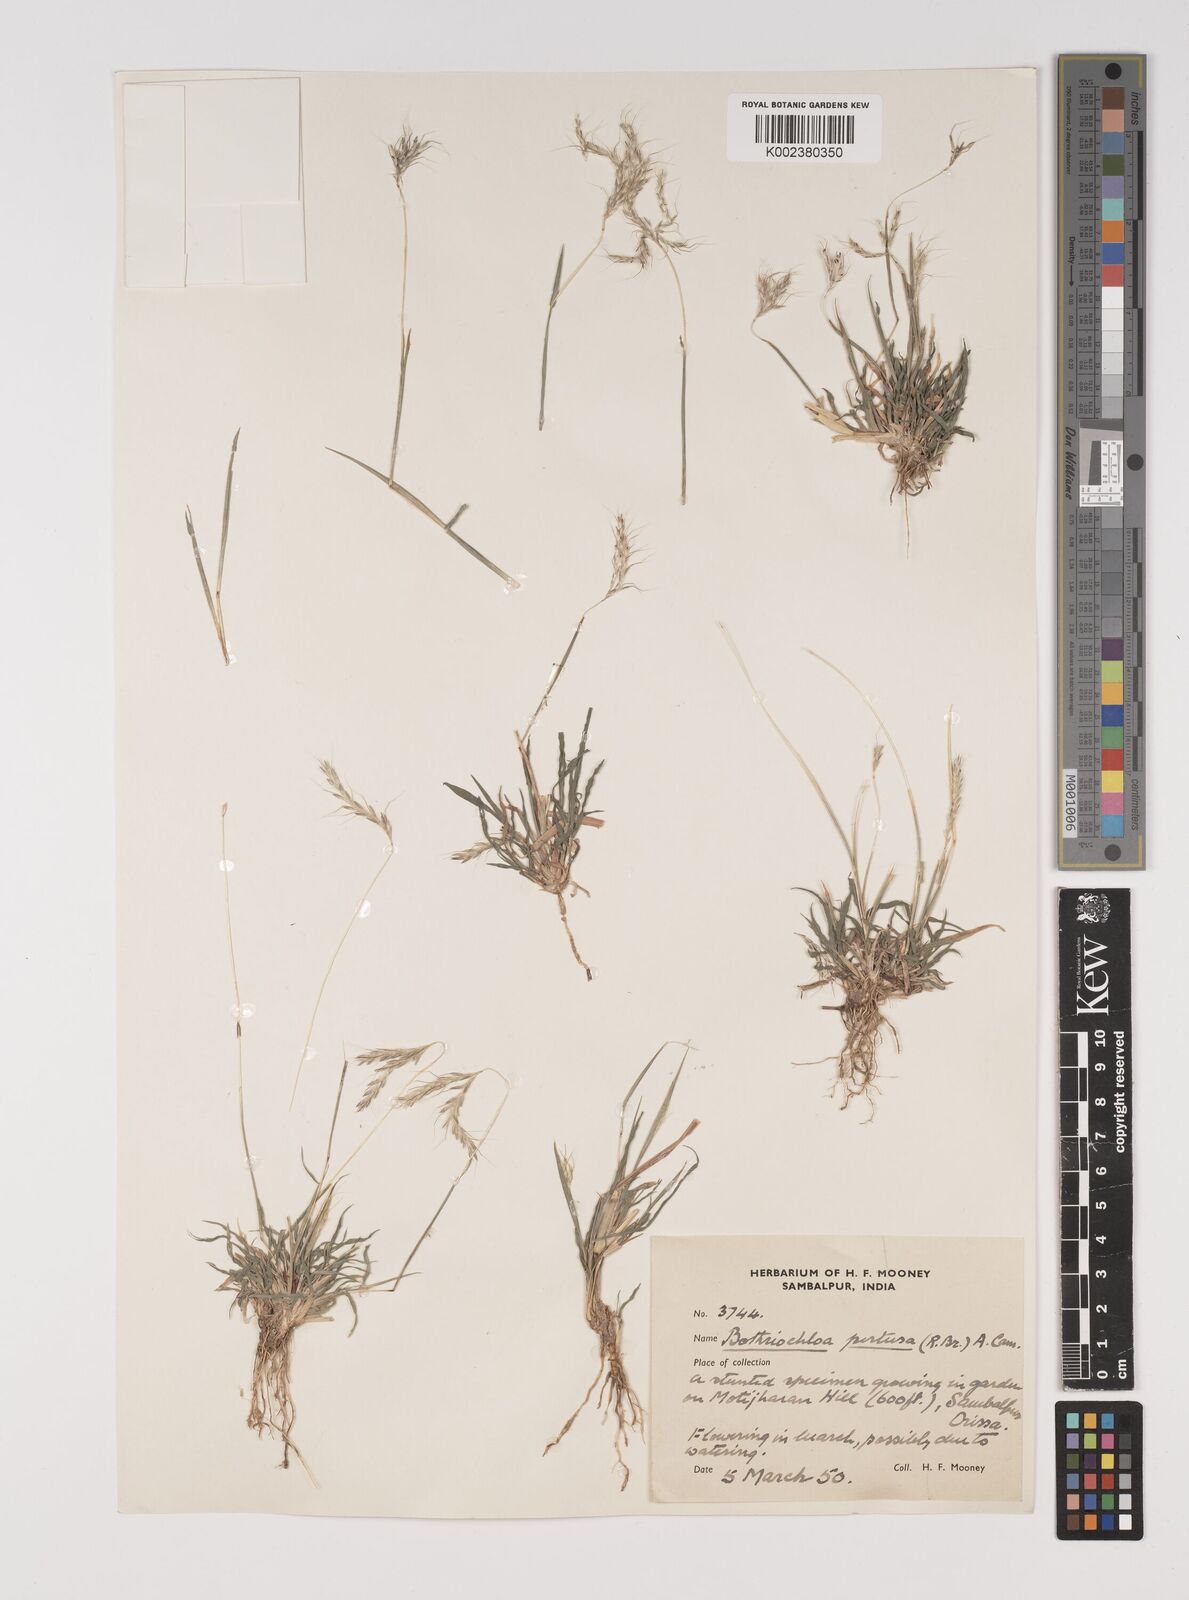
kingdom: Plantae
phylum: Tracheophyta
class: Liliopsida
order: Poales
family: Poaceae
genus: Bothriochloa
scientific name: Bothriochloa pertusa
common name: Pitted beardgrass
